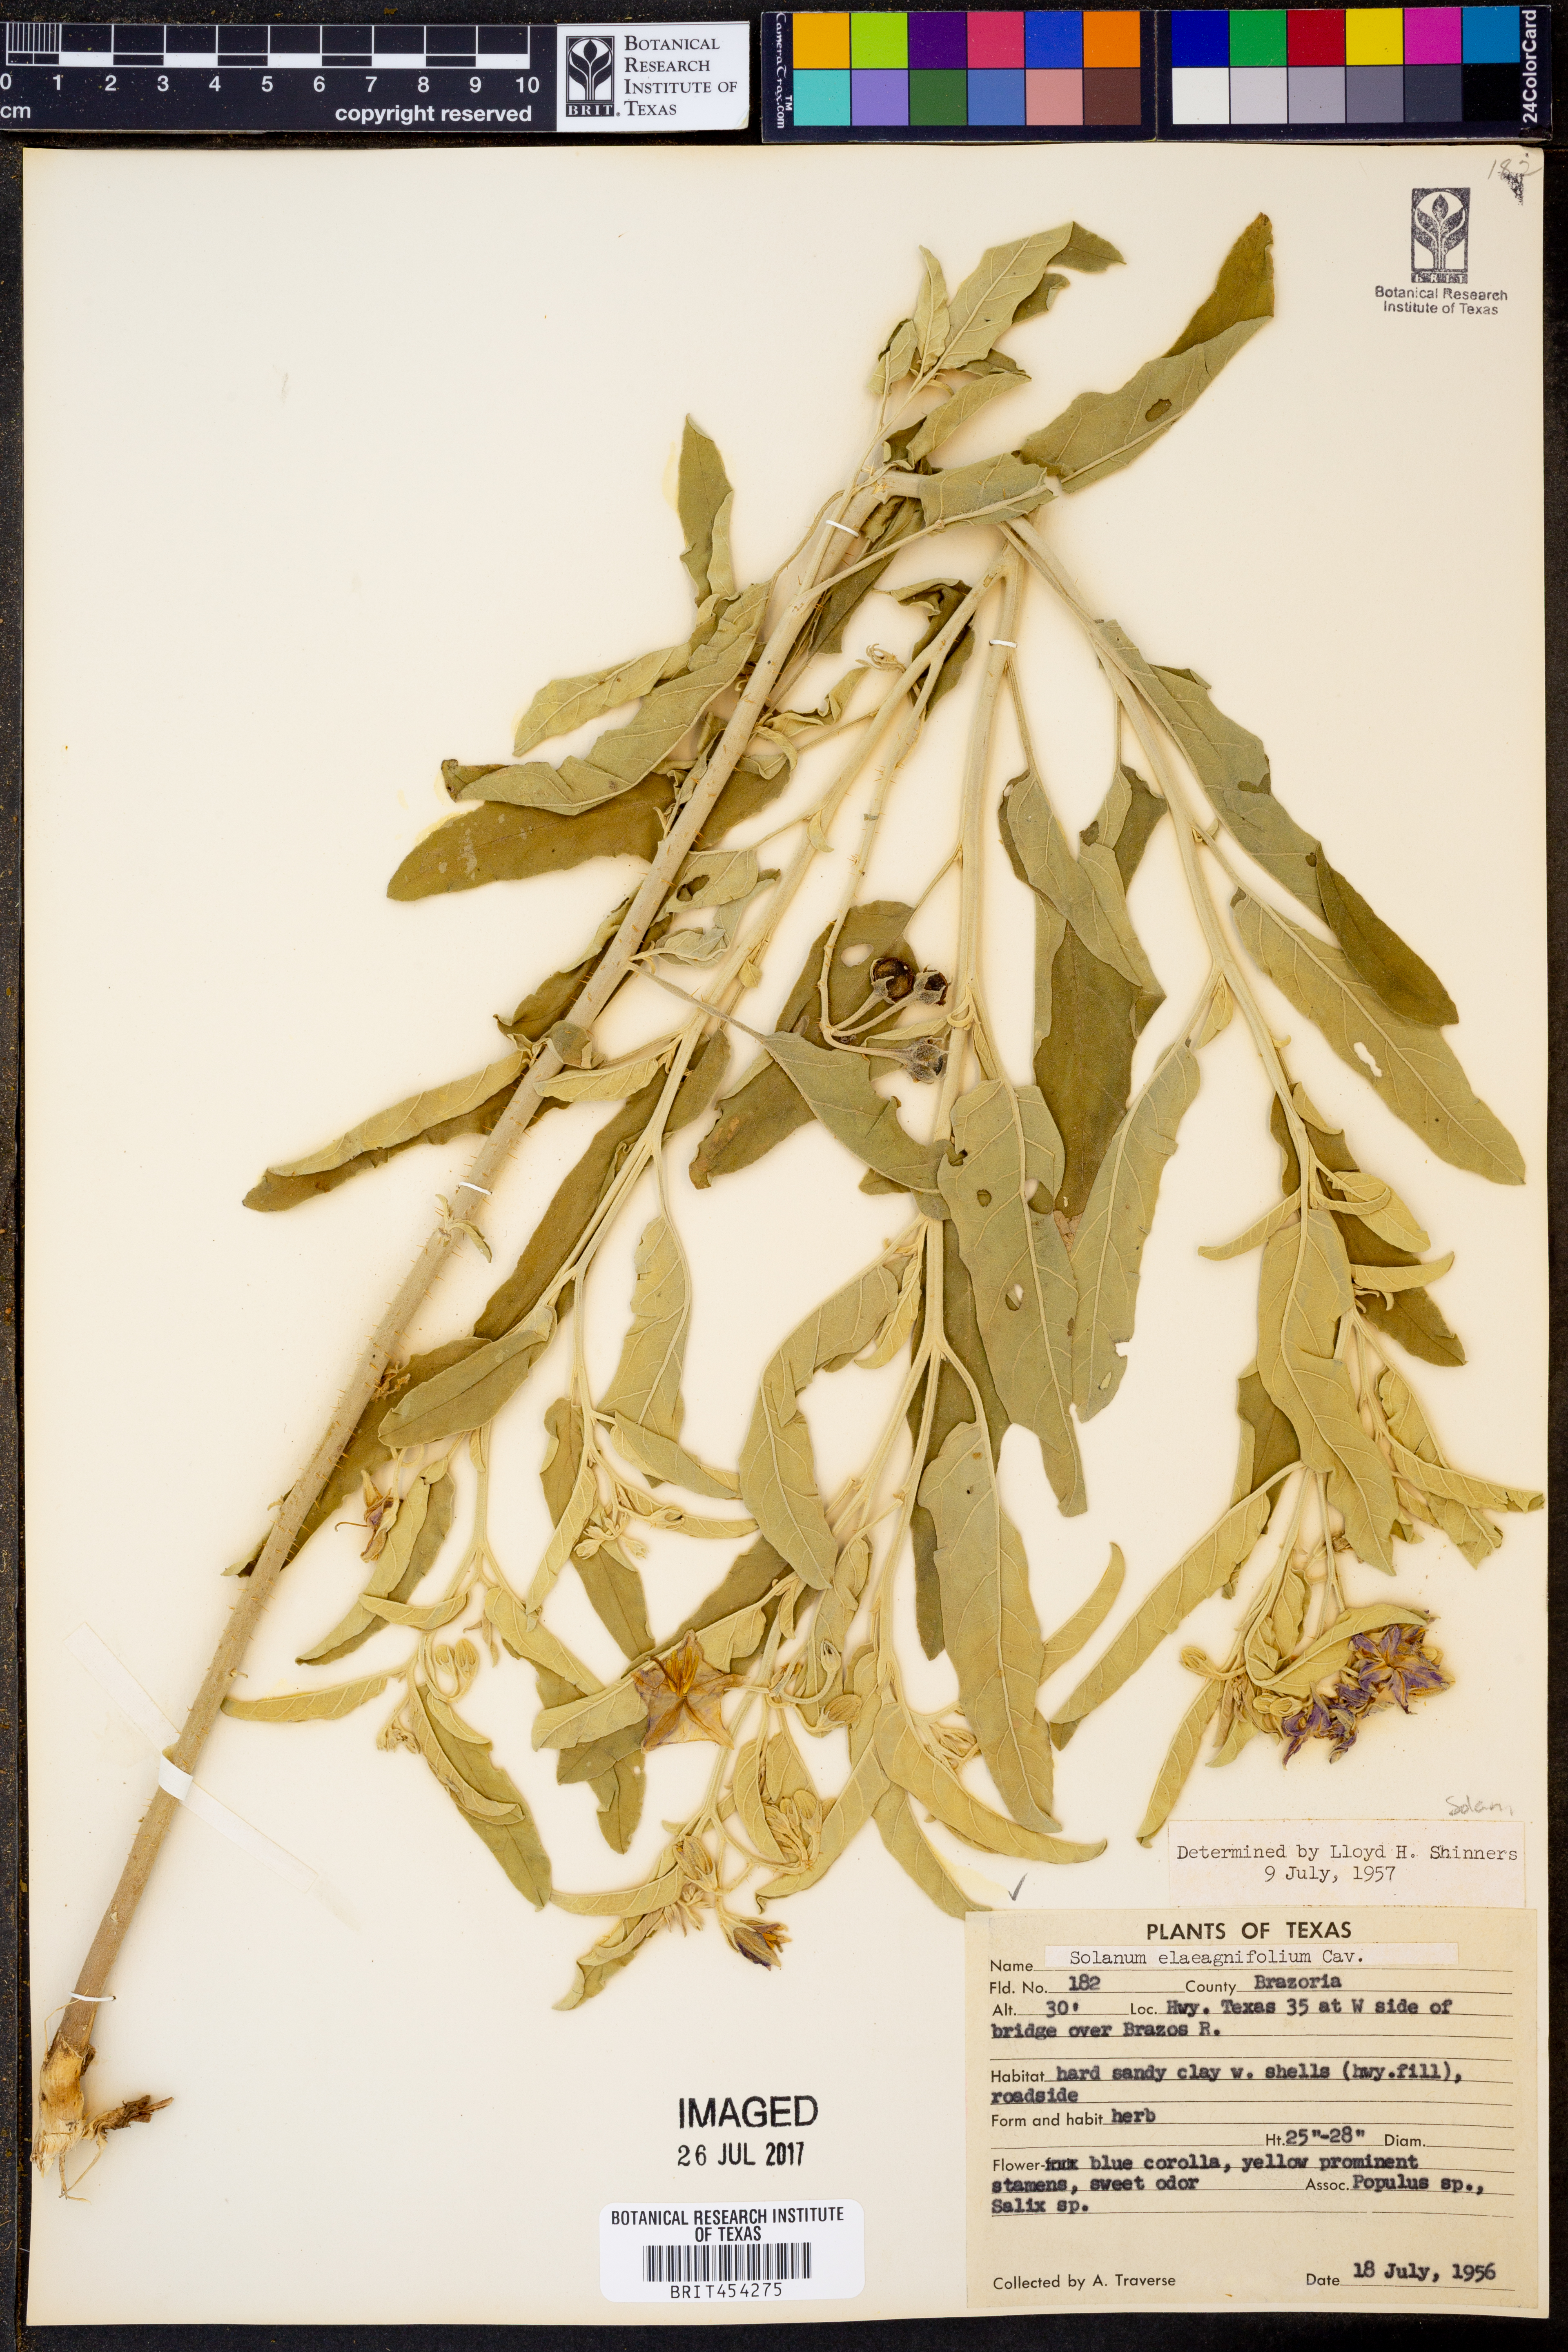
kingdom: Plantae
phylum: Tracheophyta
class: Magnoliopsida
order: Solanales
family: Solanaceae
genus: Solanum
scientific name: Solanum elaeagnifolium
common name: Silverleaf nightshade
